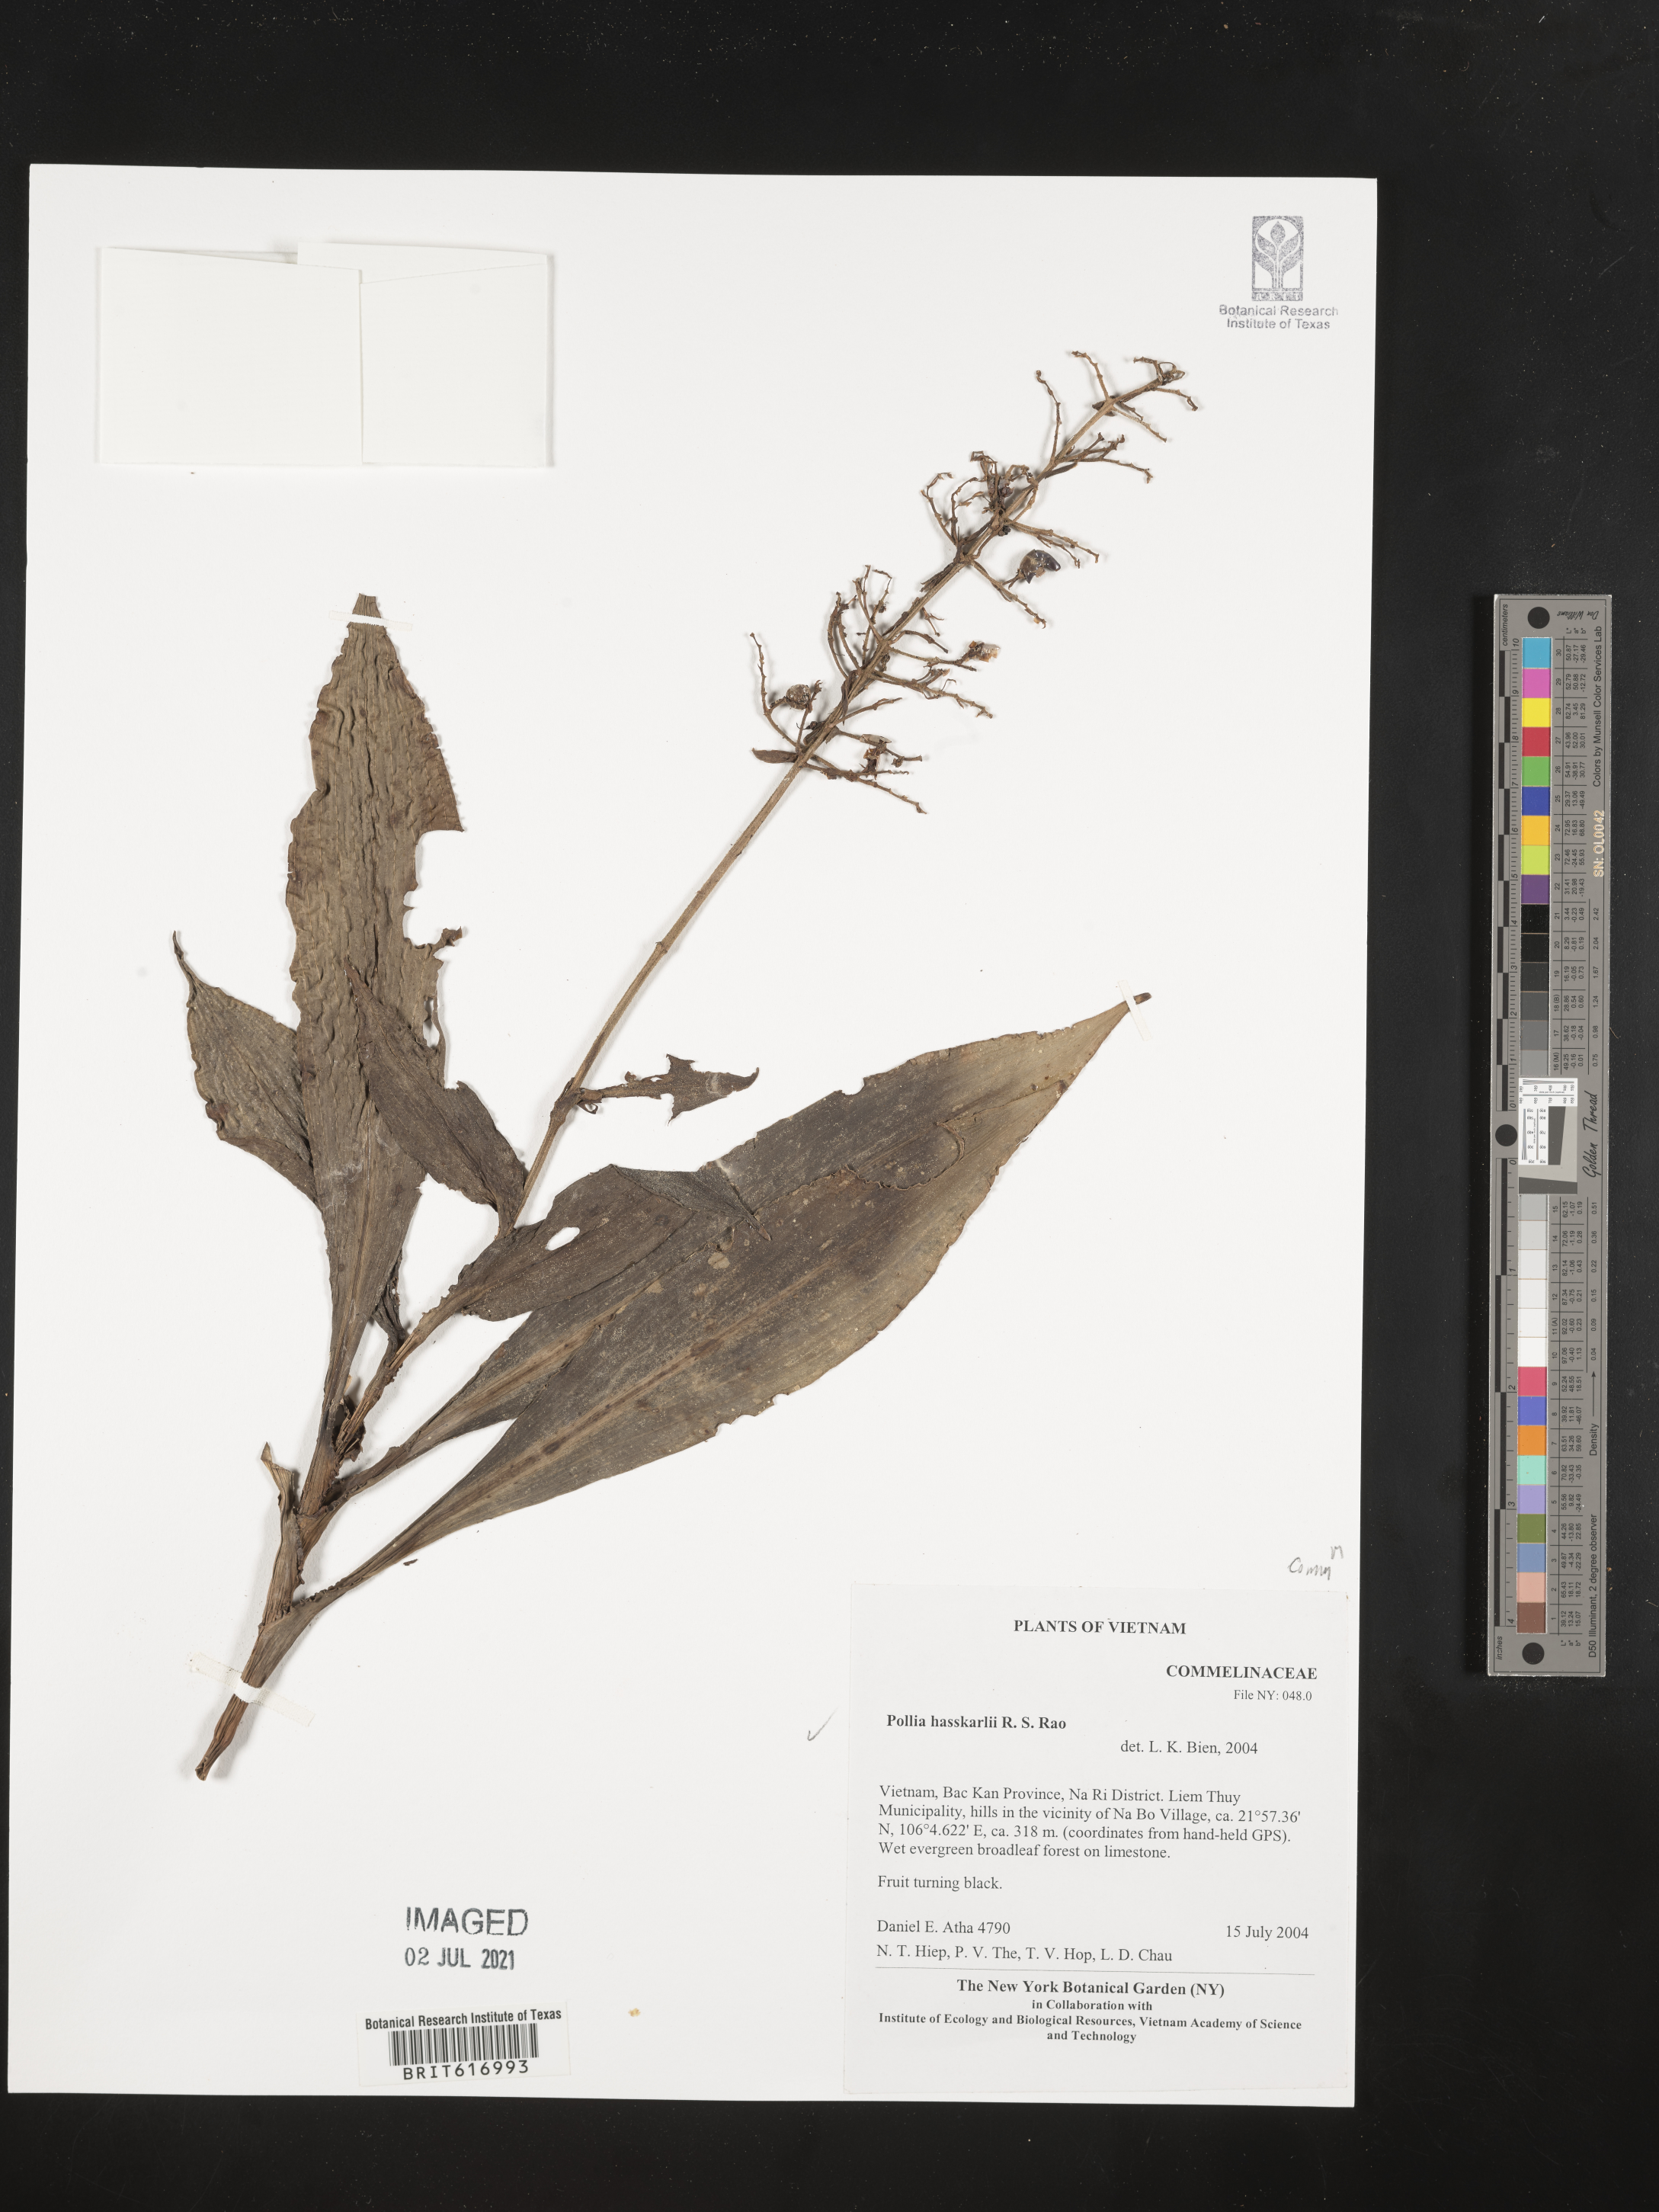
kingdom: Plantae
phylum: Tracheophyta
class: Liliopsida
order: Commelinales
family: Commelinaceae
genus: Pollia
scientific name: Pollia hasskarlii
